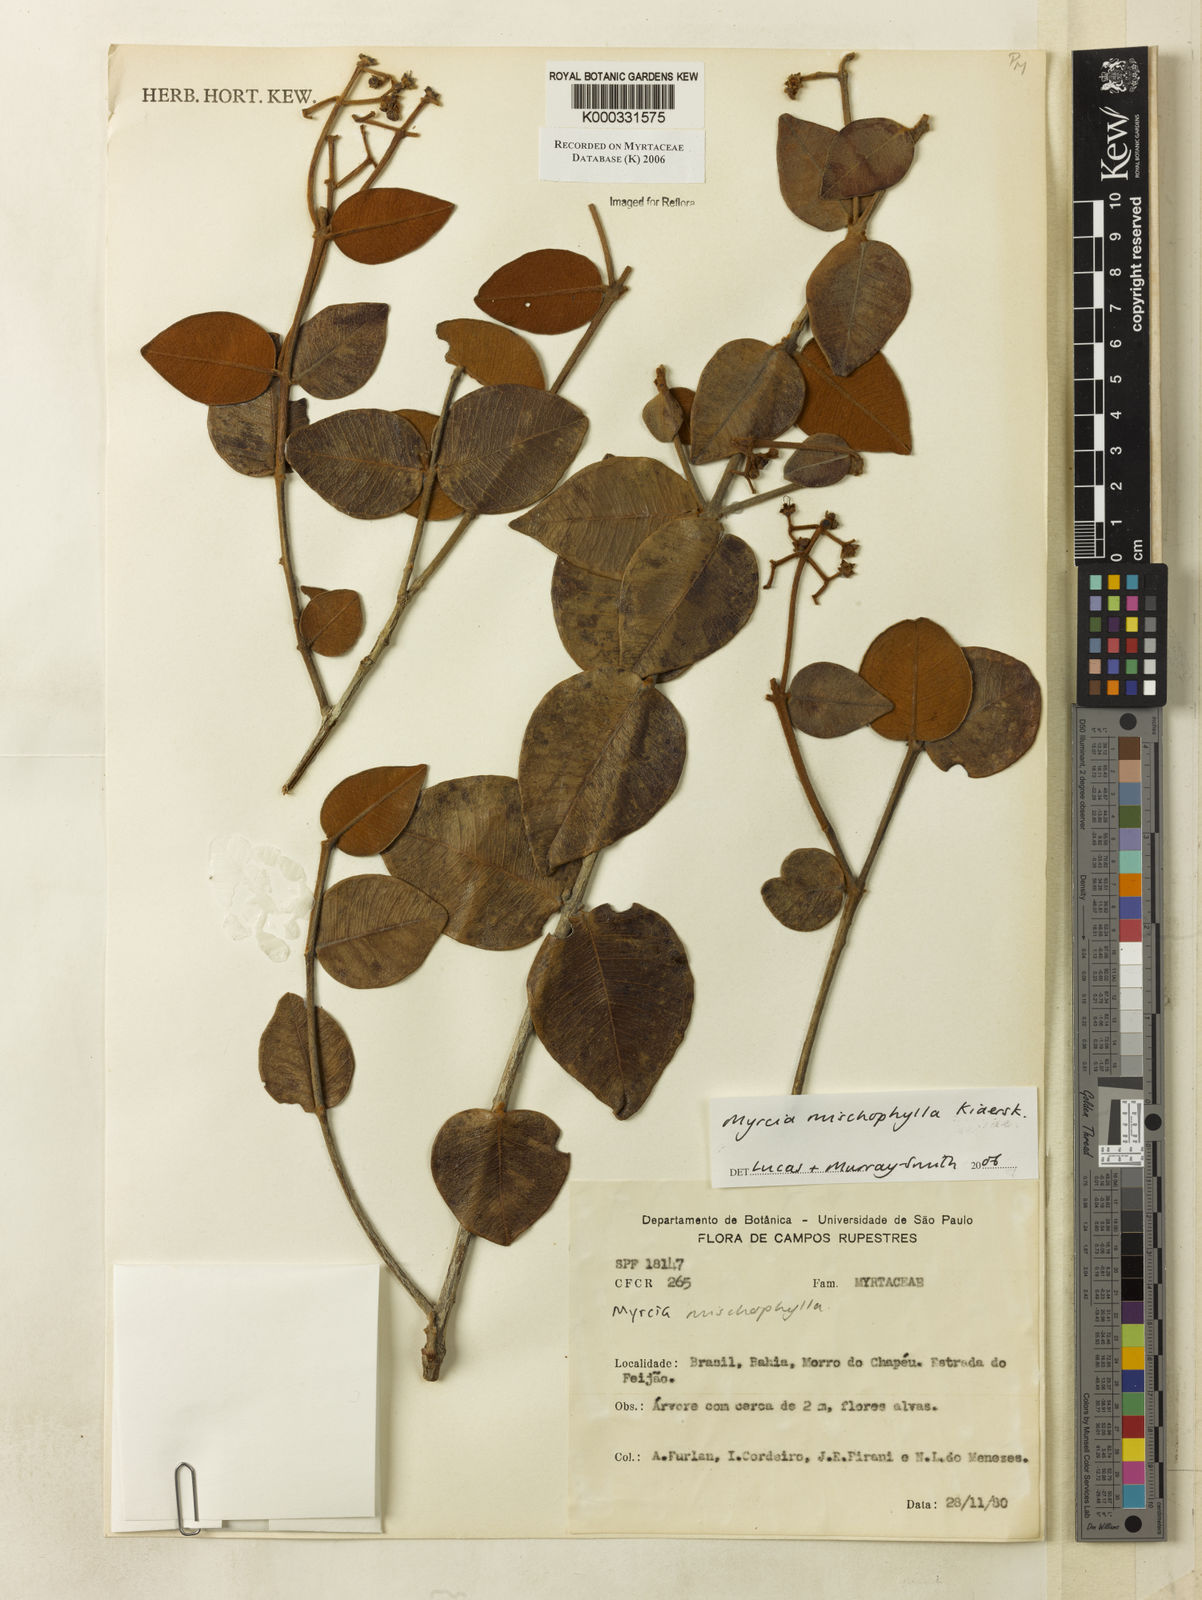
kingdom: Plantae
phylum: Tracheophyta
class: Magnoliopsida
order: Myrtales
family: Myrtaceae
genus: Myrcia
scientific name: Myrcia mischophylla
